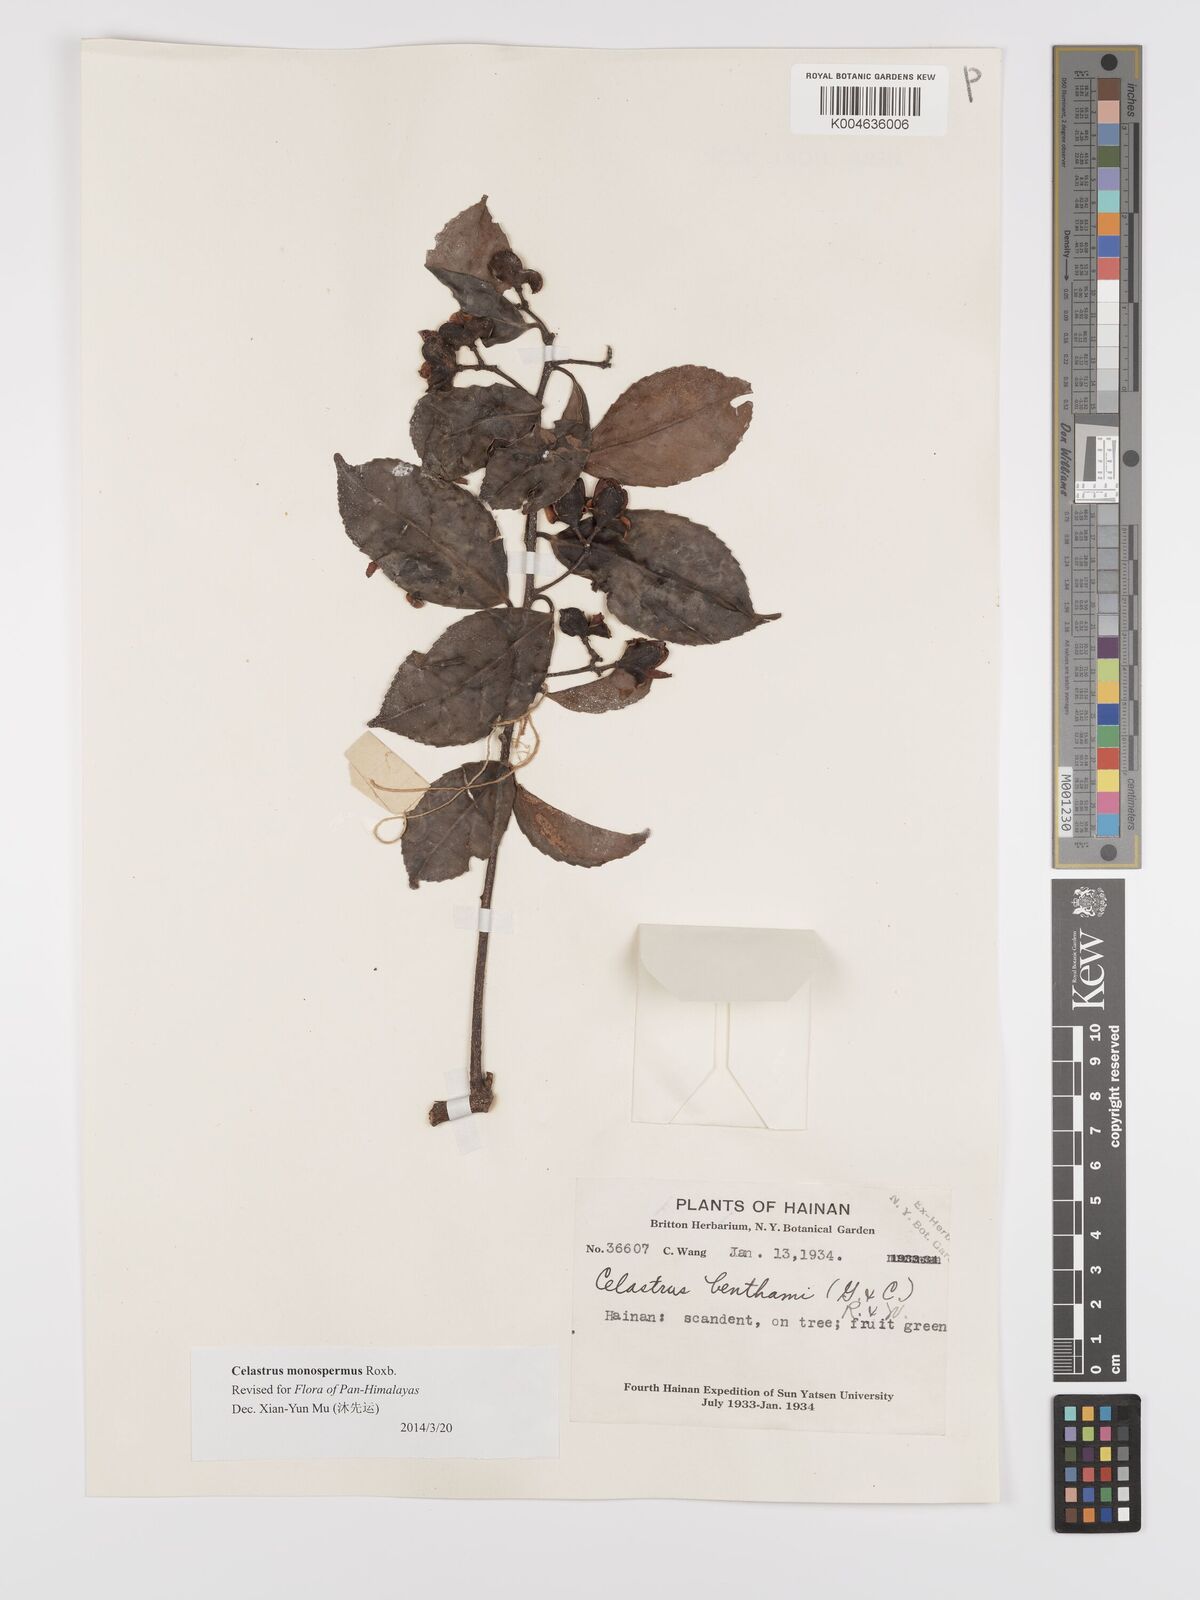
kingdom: Plantae
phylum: Tracheophyta
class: Magnoliopsida
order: Celastrales
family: Celastraceae
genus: Celastrus
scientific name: Celastrus monospermus
